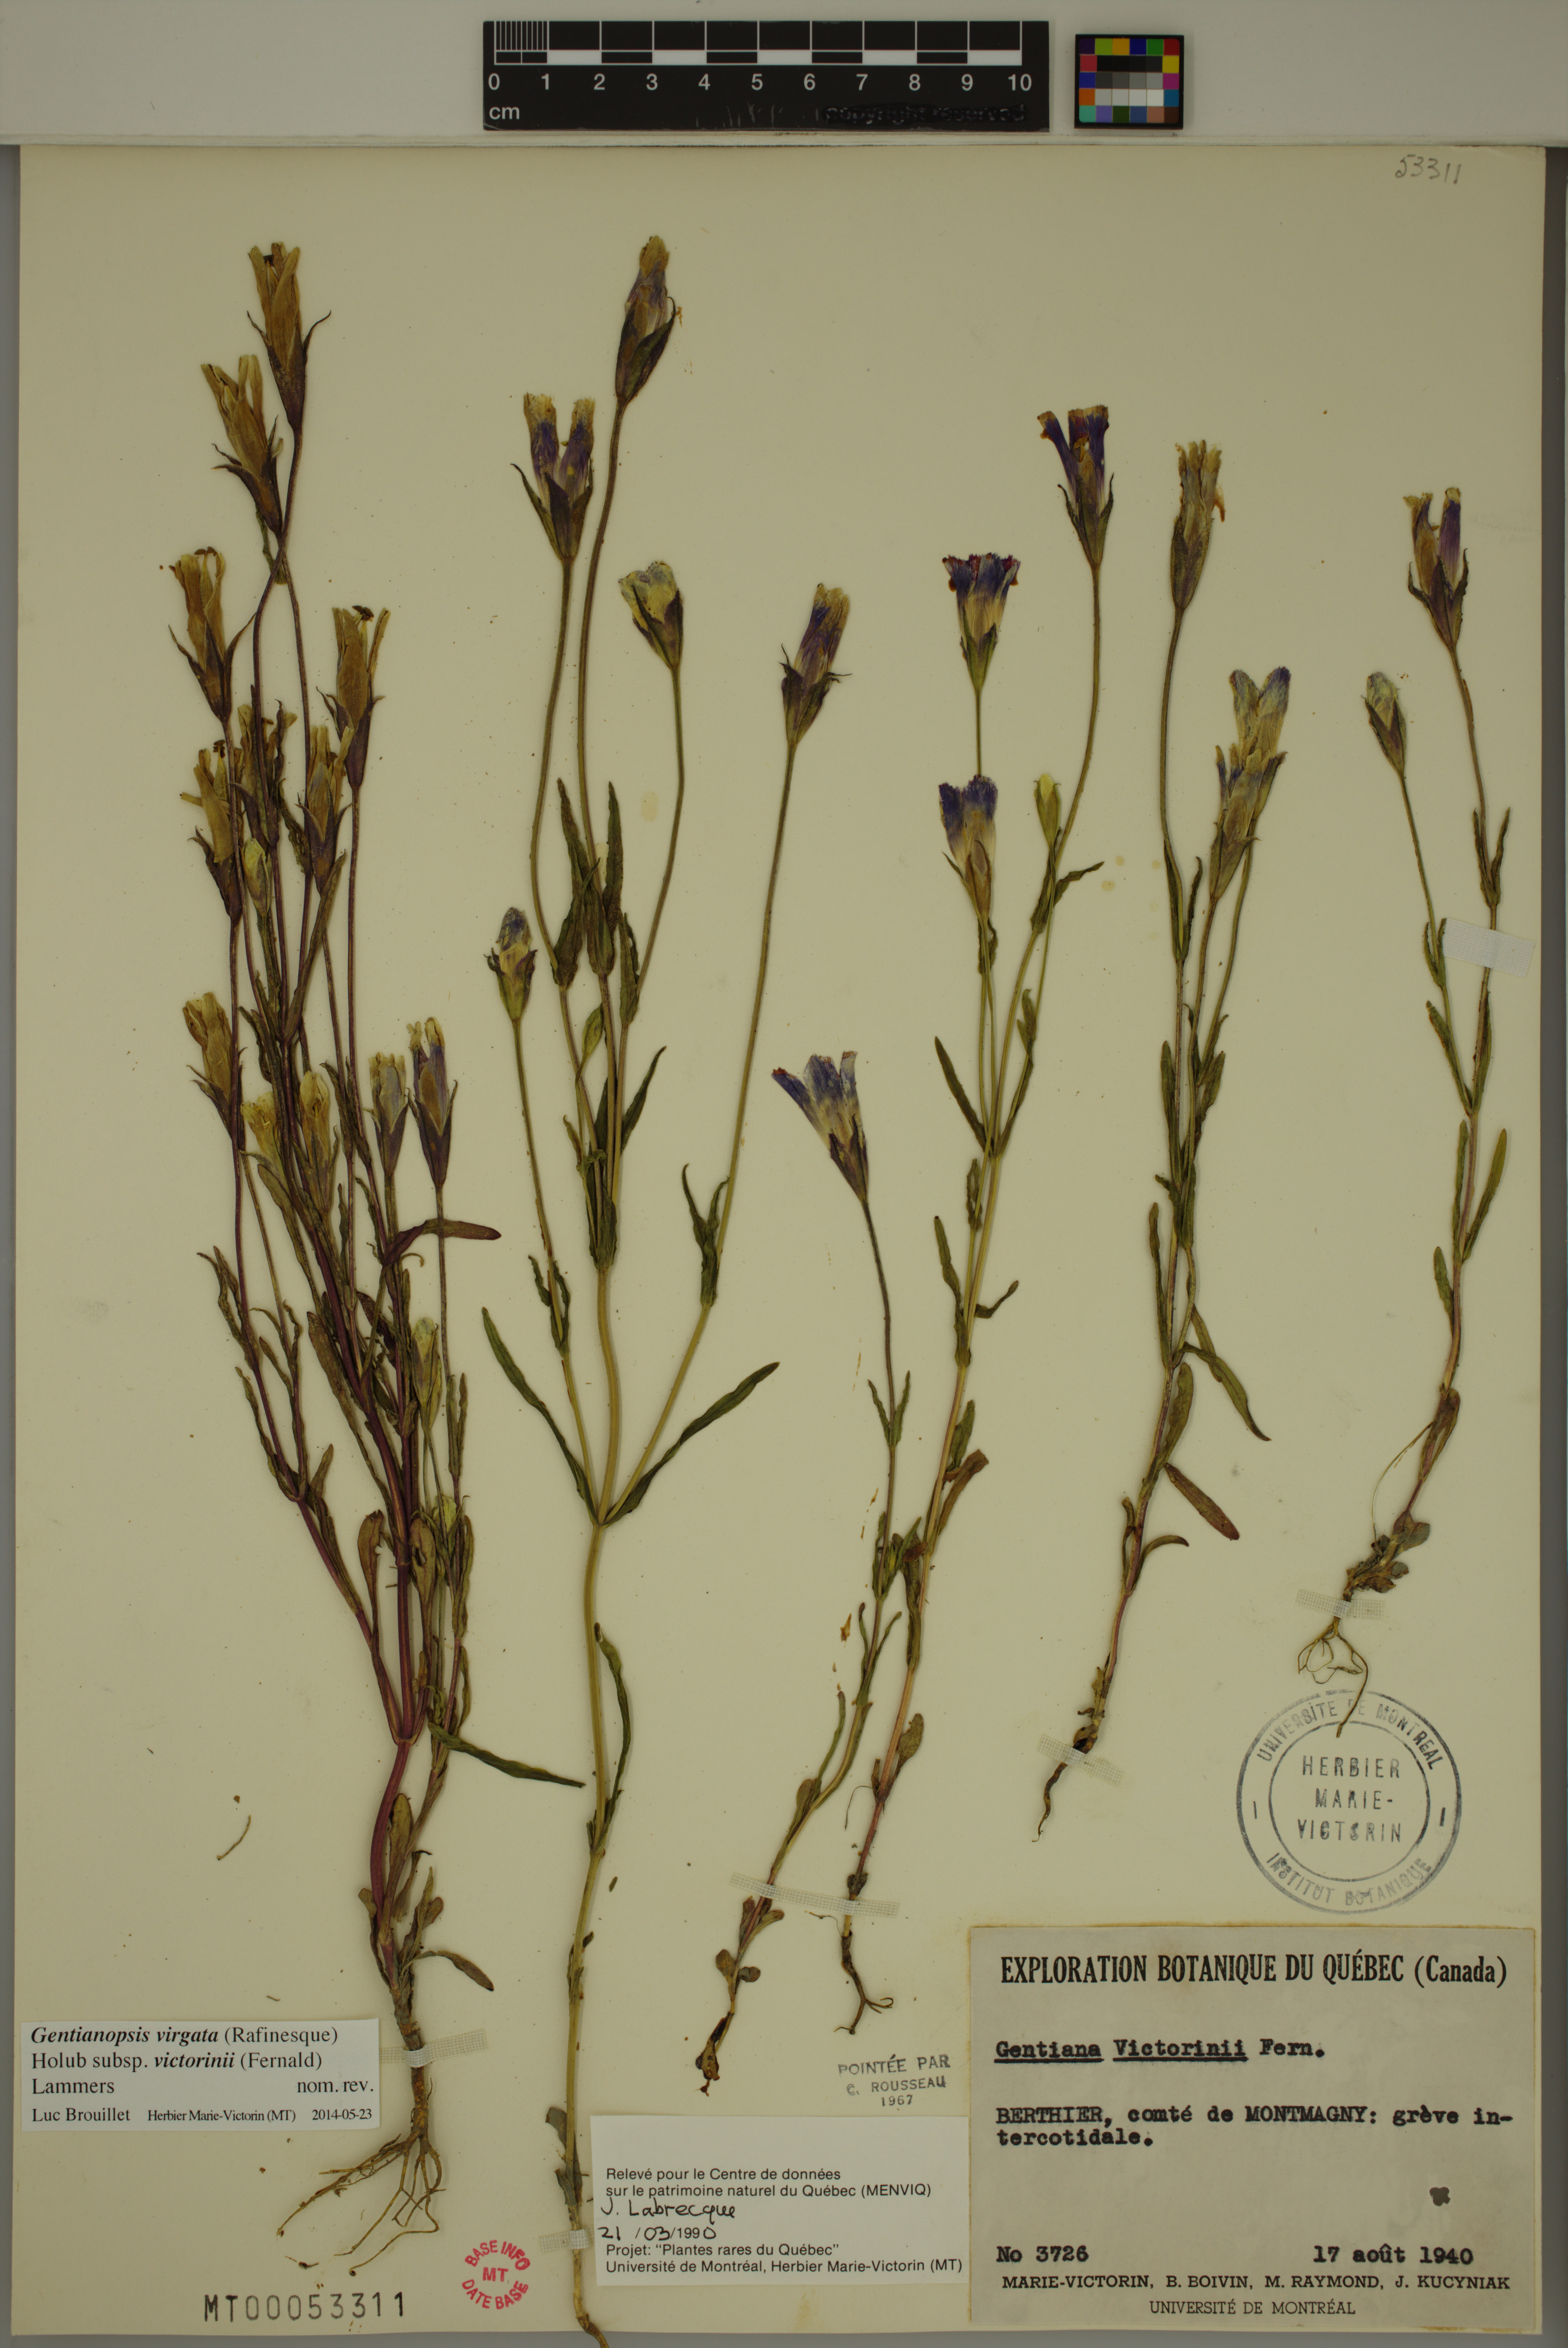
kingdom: Plantae
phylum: Tracheophyta
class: Magnoliopsida
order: Gentianales
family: Gentianaceae
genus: Gentianopsis
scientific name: Gentianopsis victorinii
